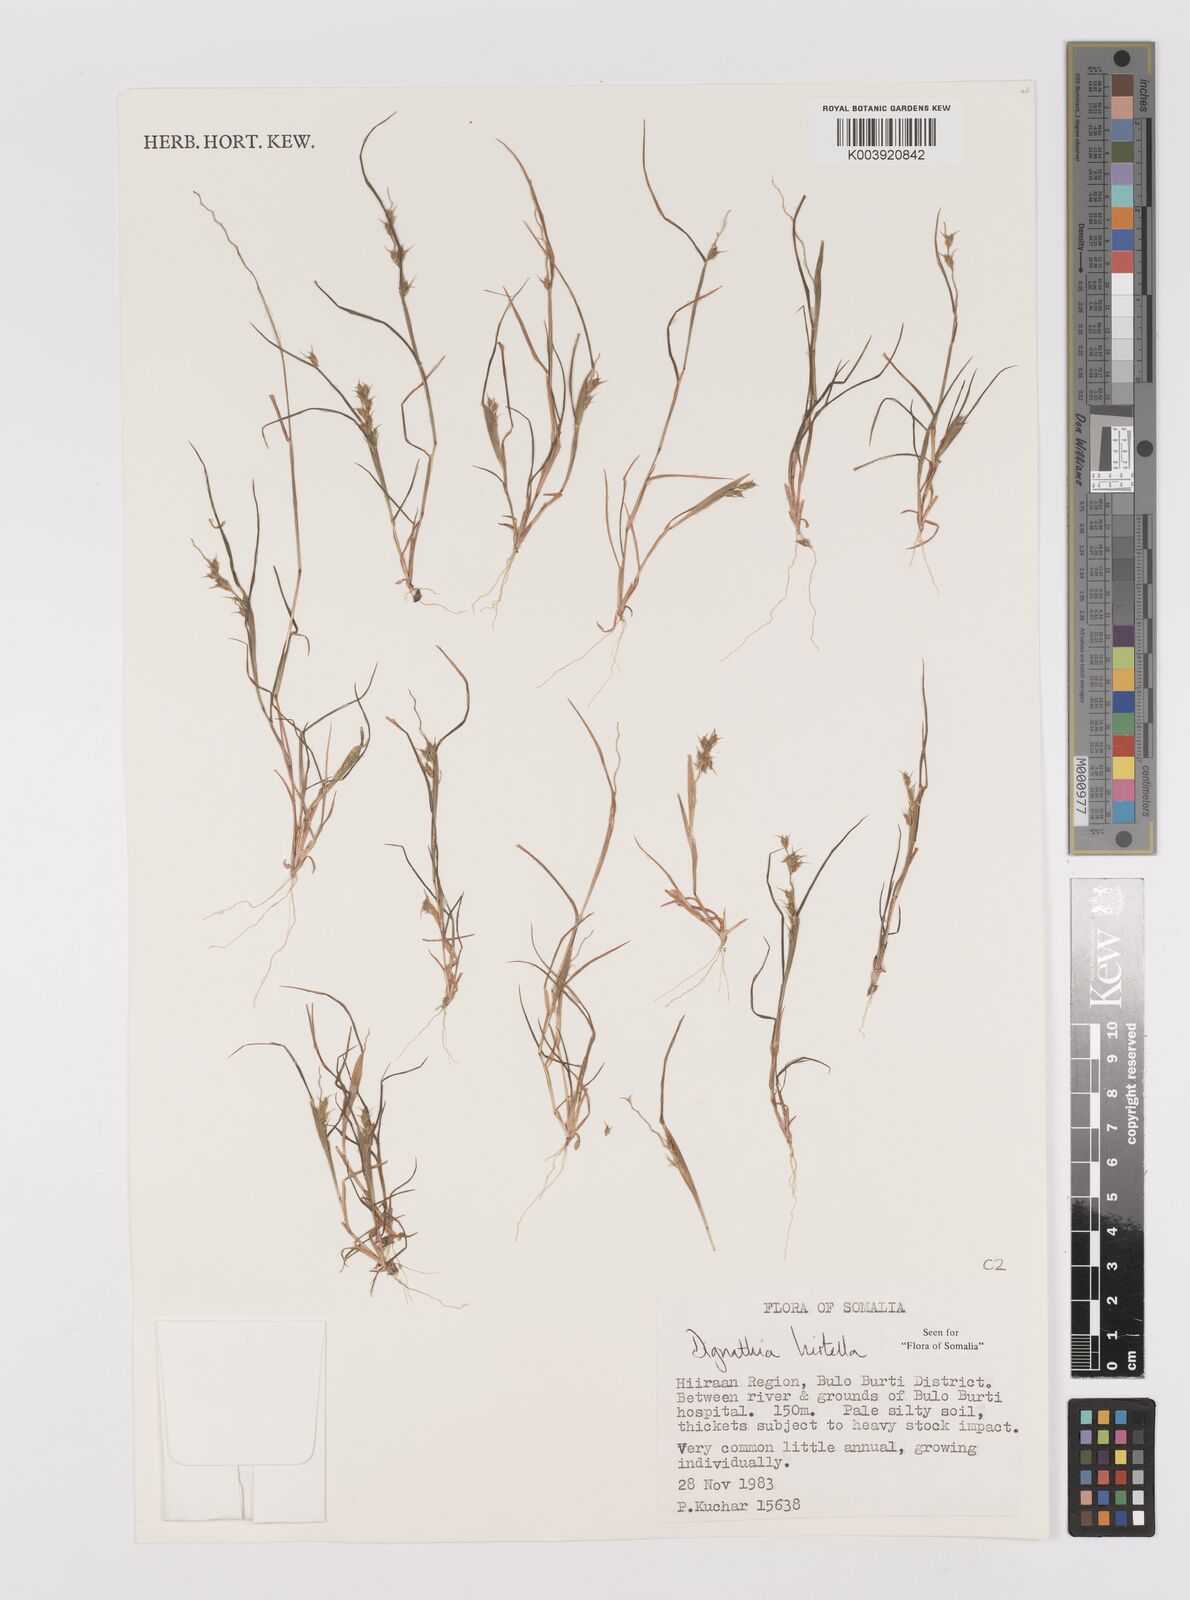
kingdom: Plantae
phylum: Tracheophyta
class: Liliopsida
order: Poales
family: Poaceae
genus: Dignathia
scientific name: Dignathia hirtella
